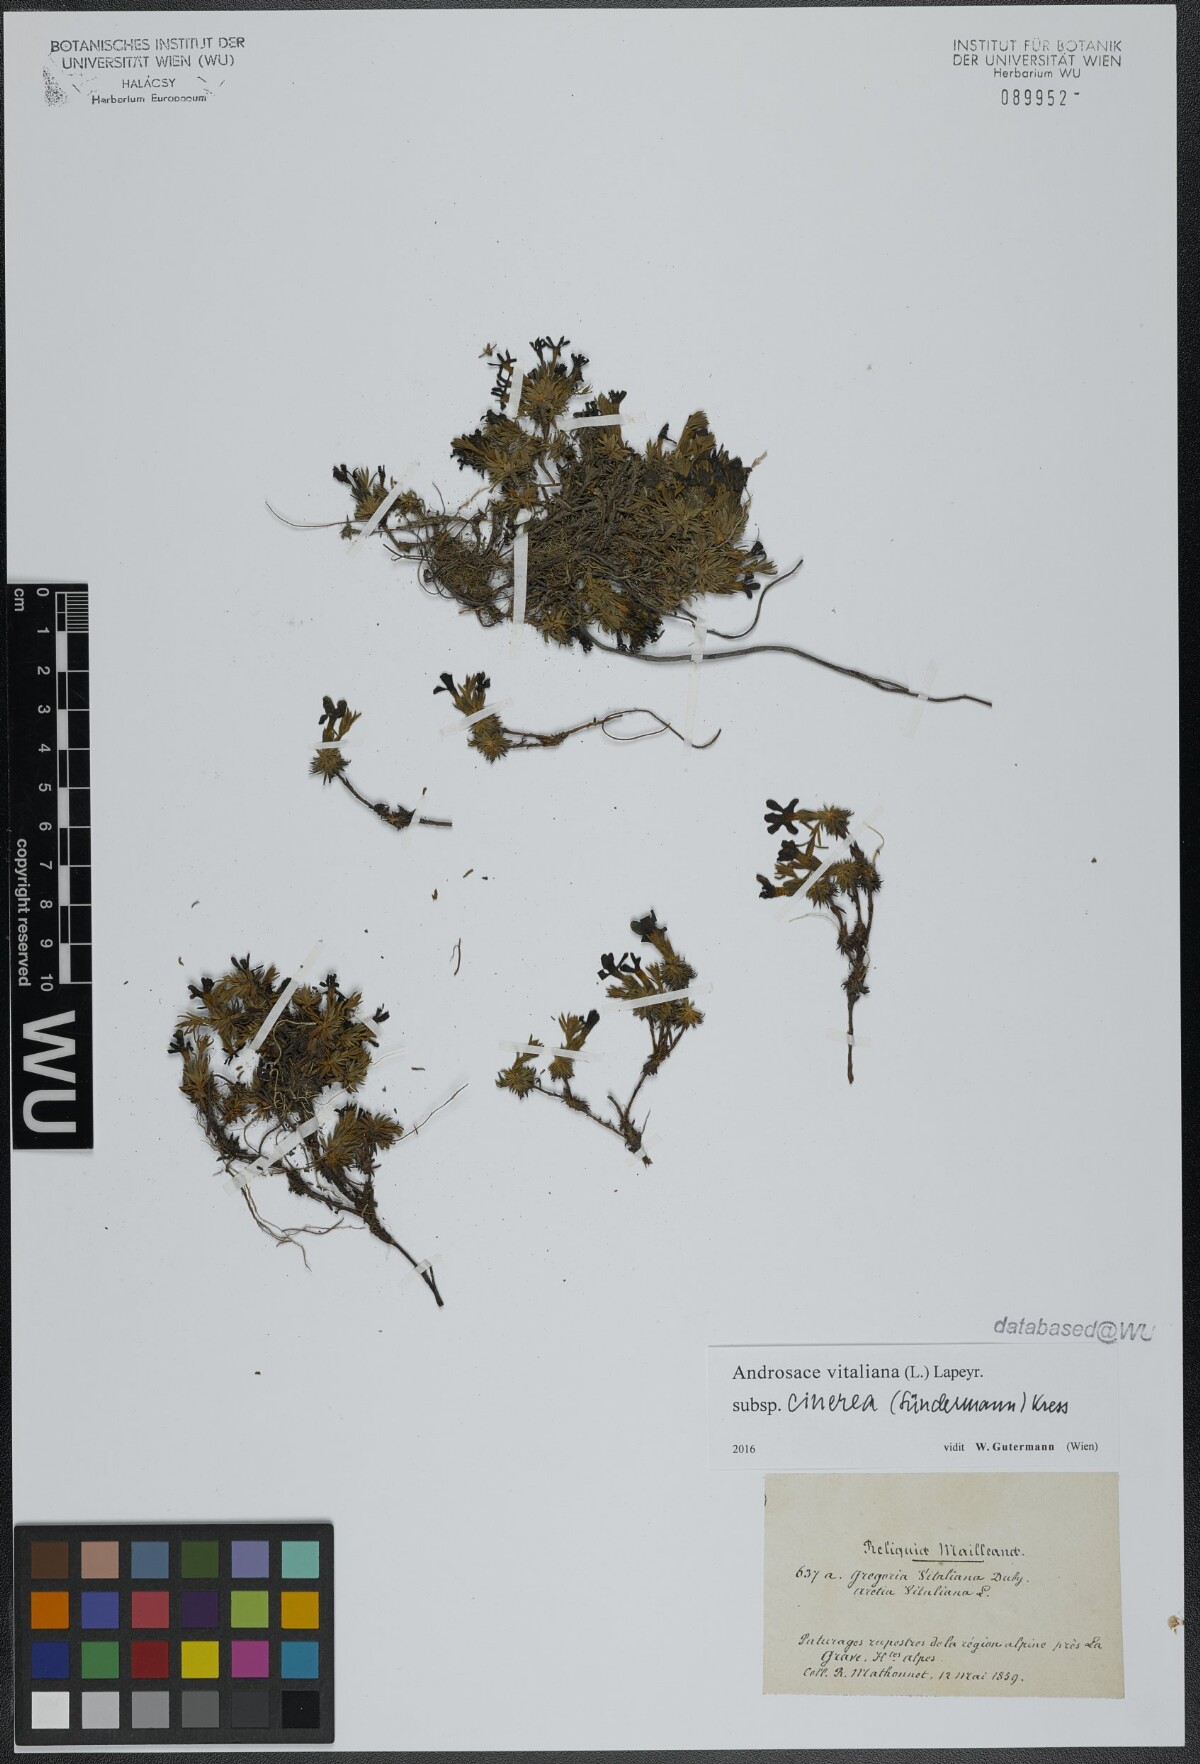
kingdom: Plantae
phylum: Tracheophyta
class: Magnoliopsida
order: Ericales
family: Primulaceae
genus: Androsace
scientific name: Androsace vitaliana
